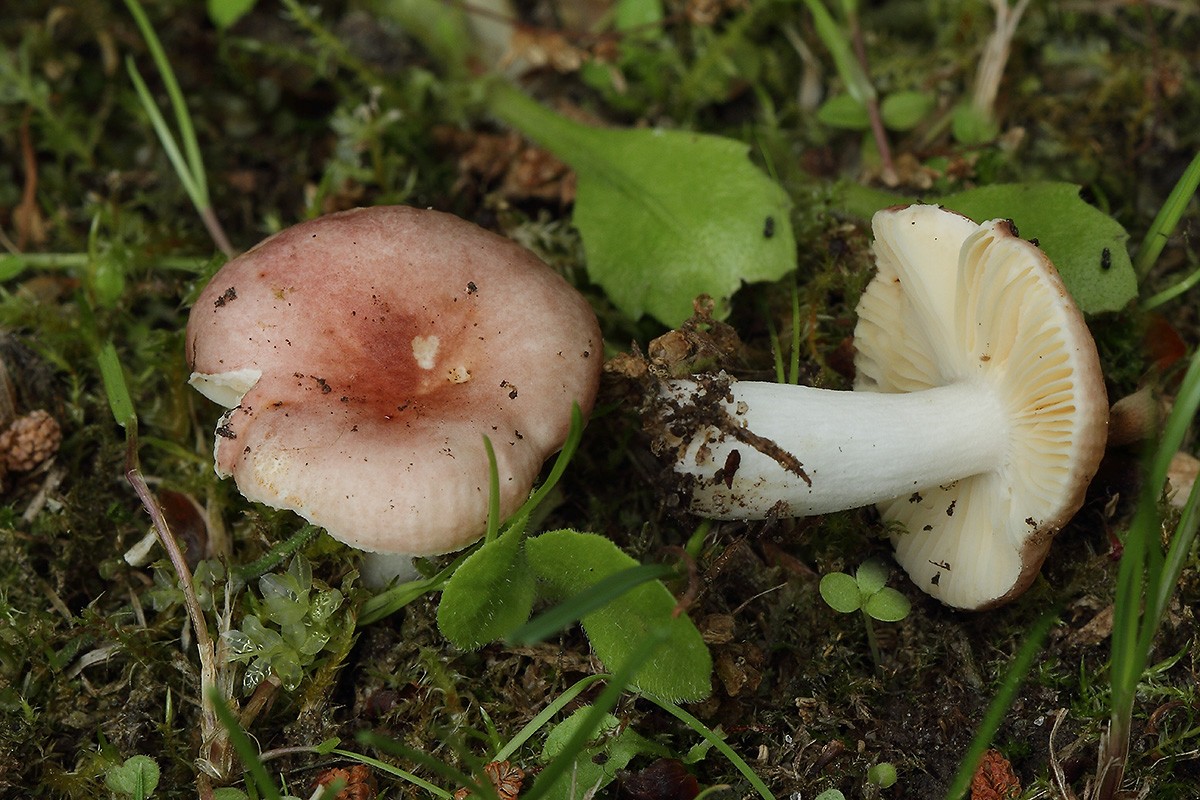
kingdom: Fungi
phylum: Basidiomycota
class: Agaricomycetes
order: Russulales
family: Russulaceae
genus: Russula
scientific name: Russula odorata
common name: duft-skørhat
